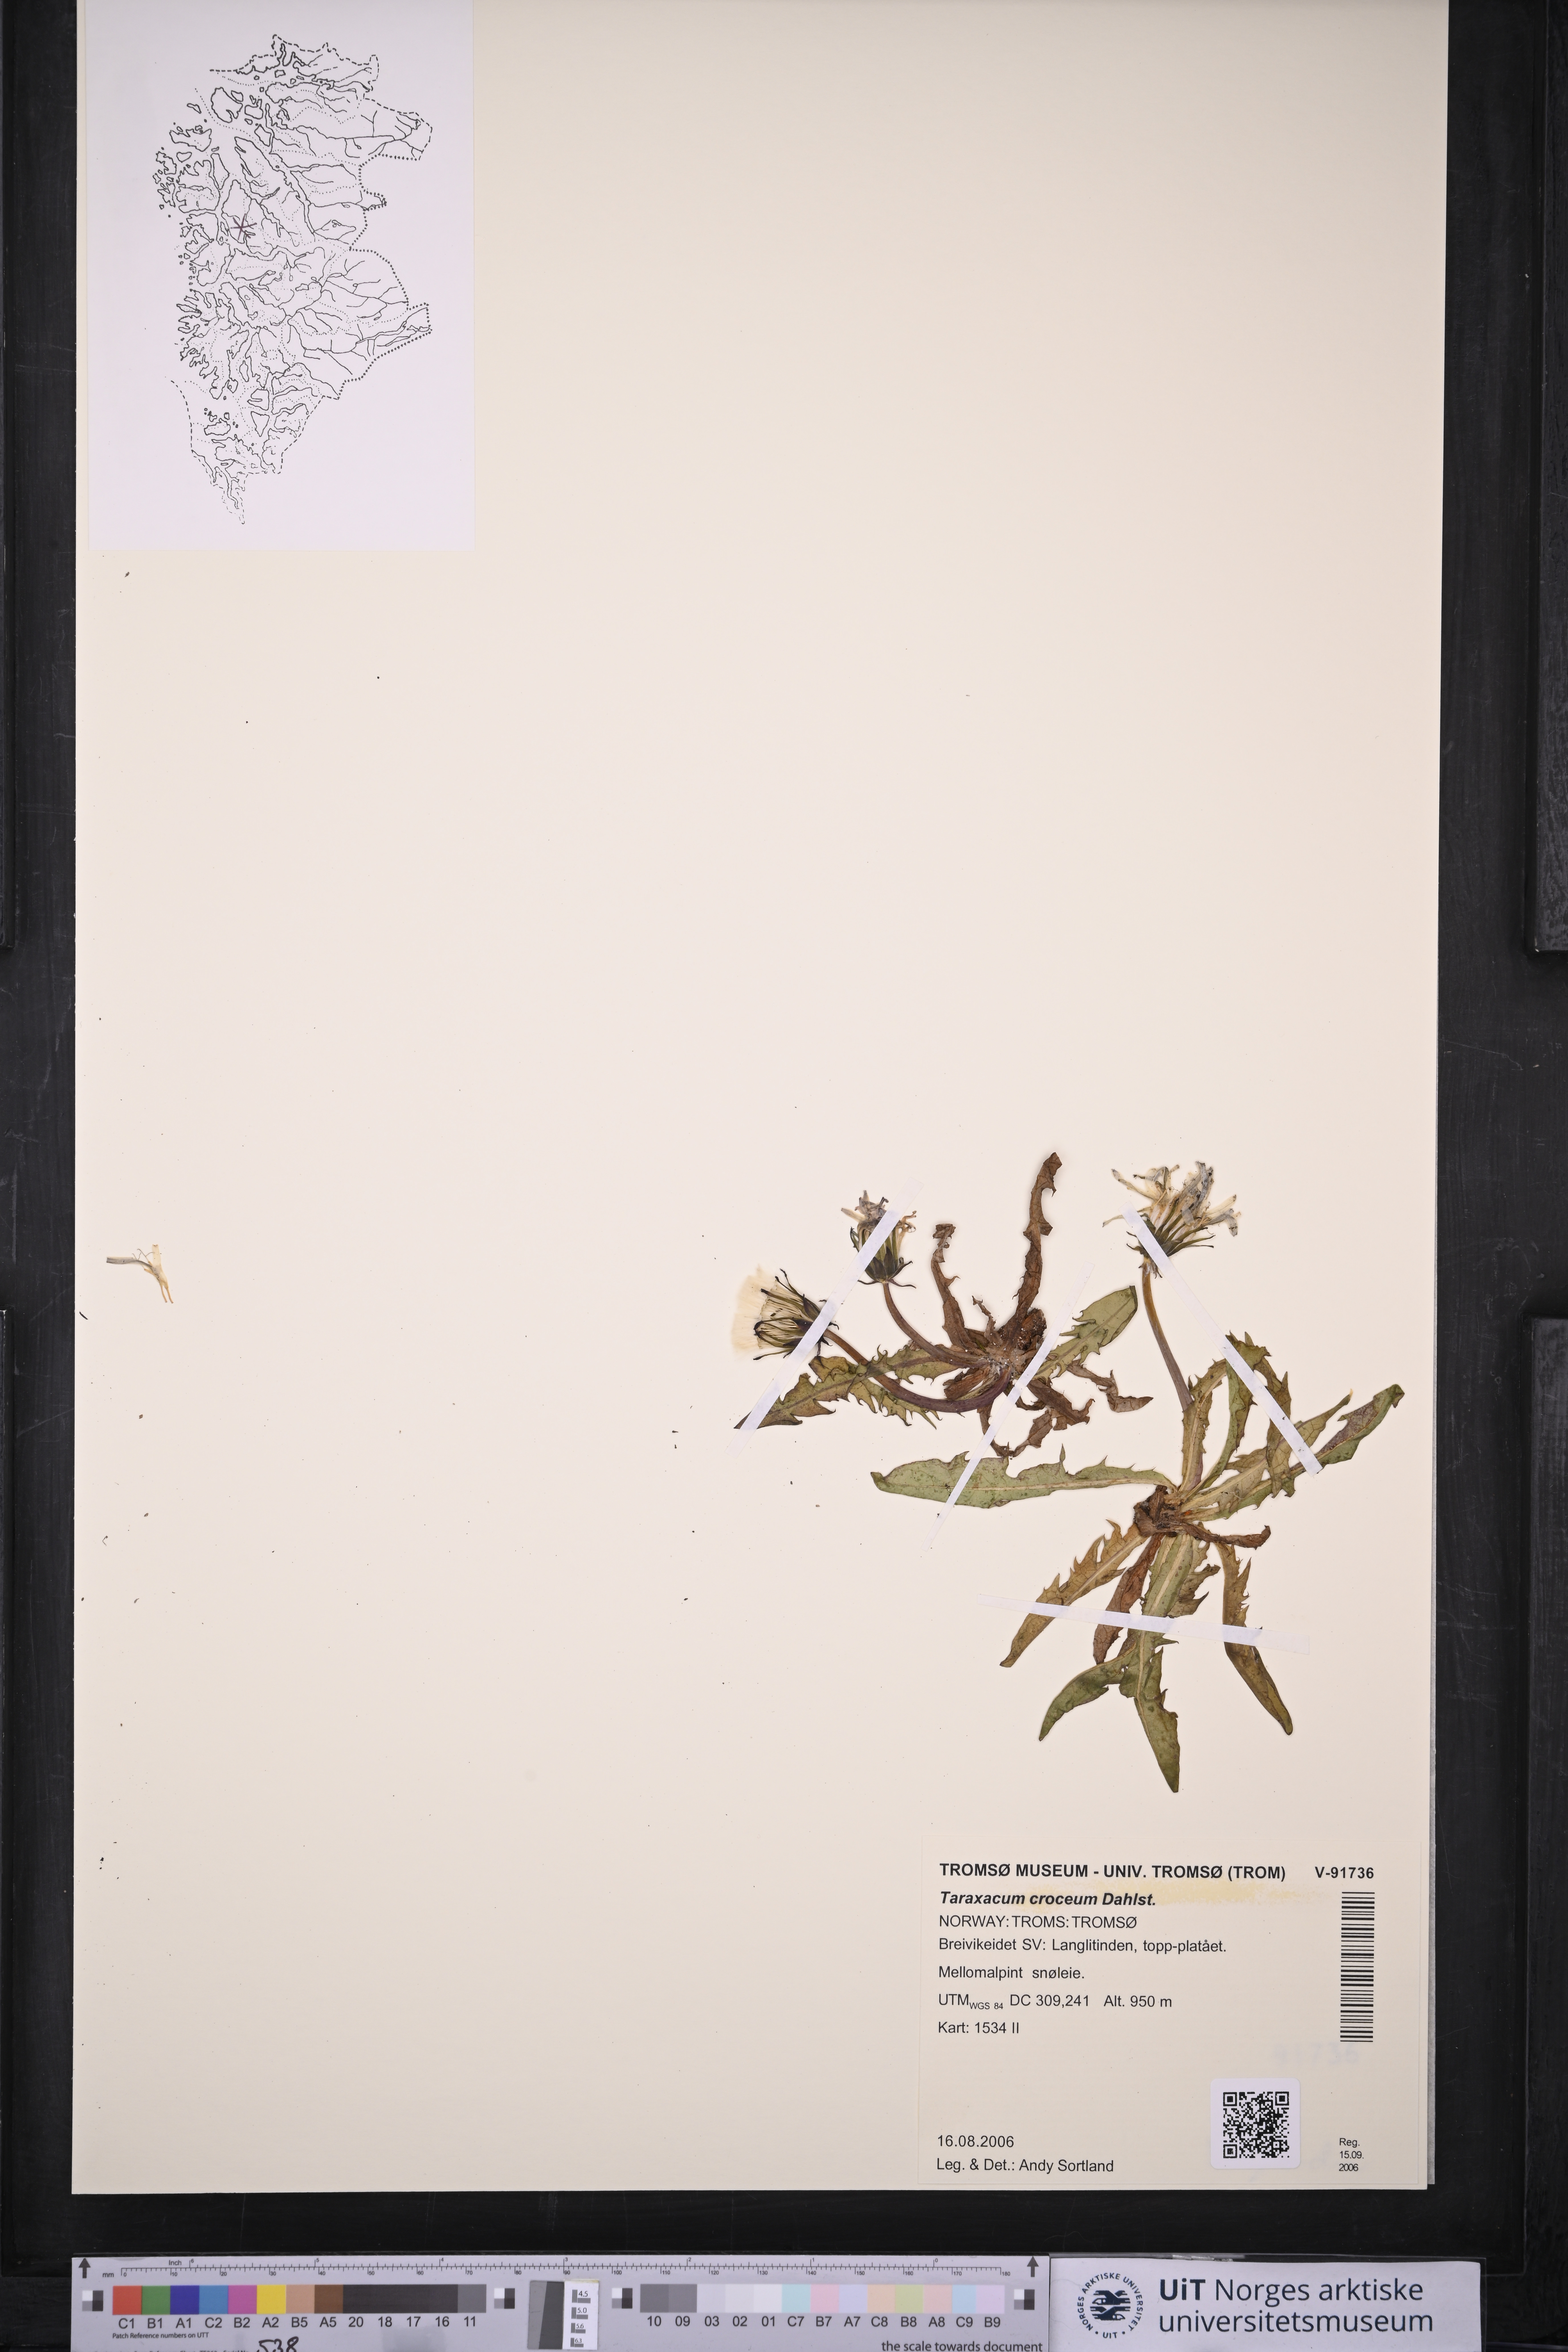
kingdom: Plantae
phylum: Tracheophyta
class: Magnoliopsida
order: Asterales
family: Asteraceae
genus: Taraxacum
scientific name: Taraxacum croceum
